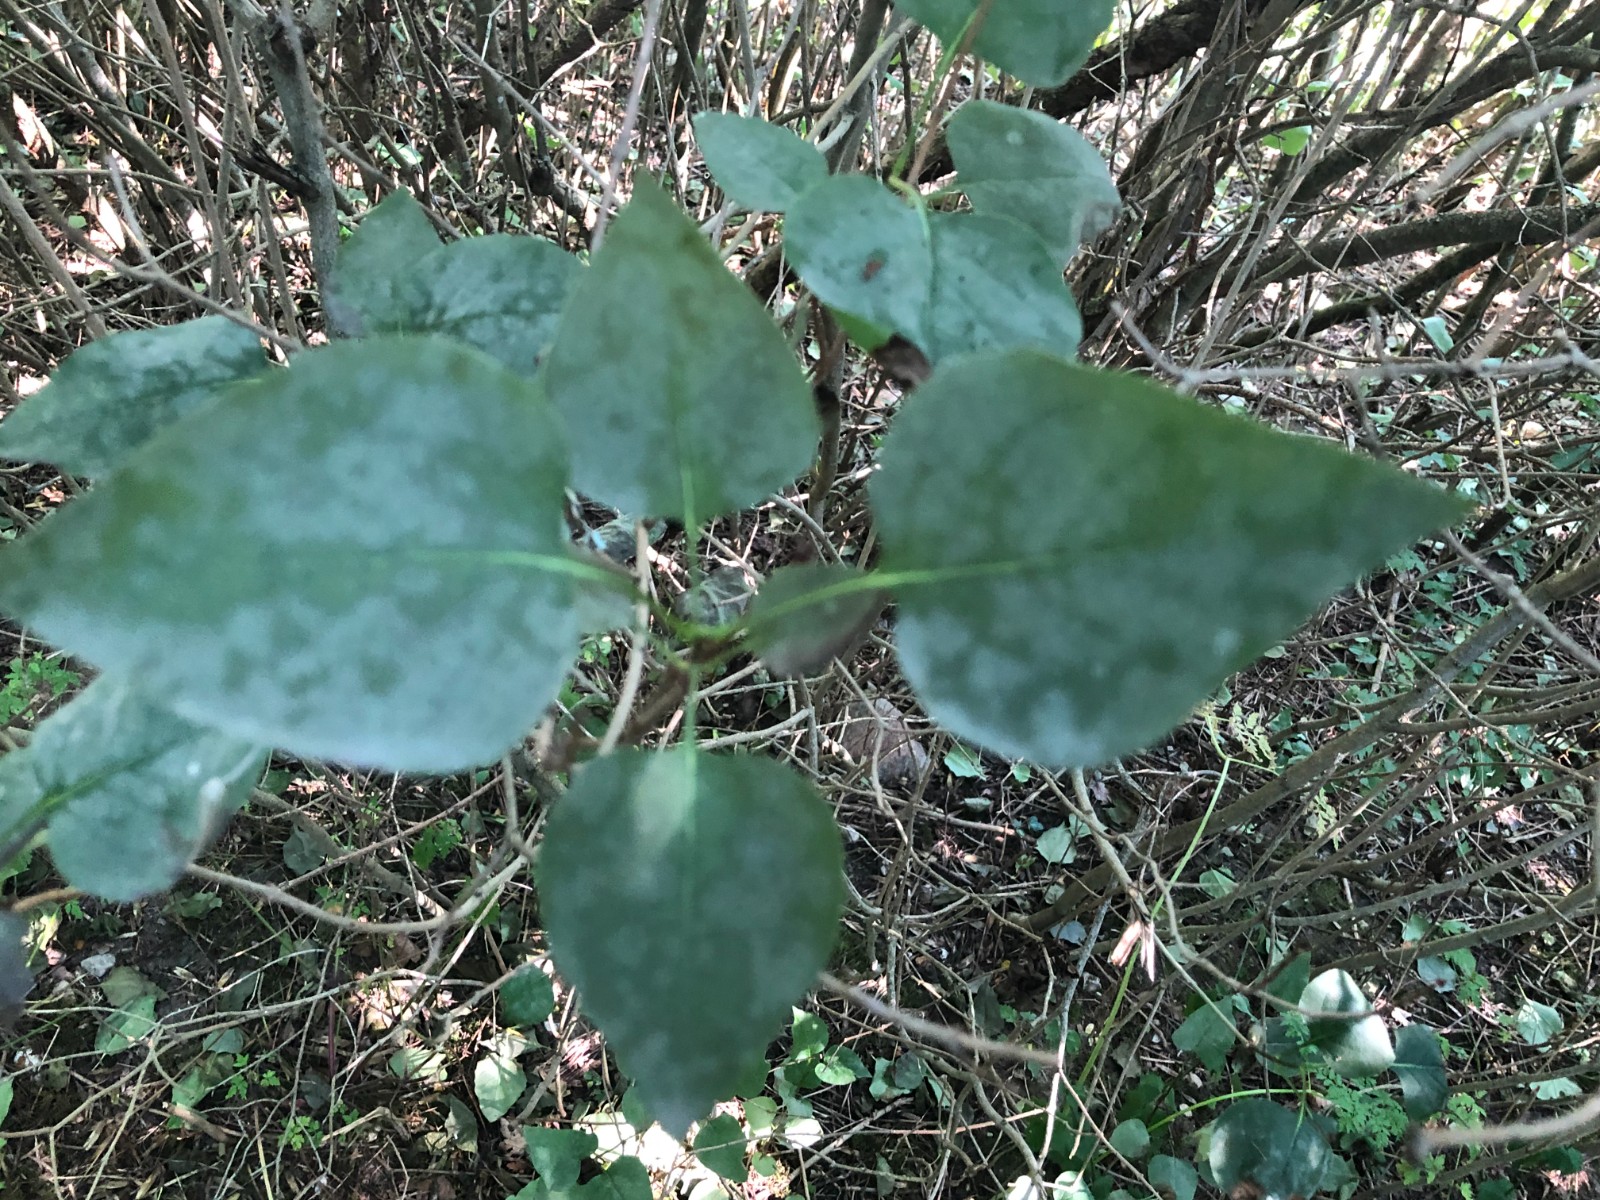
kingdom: Fungi
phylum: Ascomycota
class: Leotiomycetes
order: Helotiales
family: Erysiphaceae
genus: Erysiphe
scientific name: Erysiphe syringae-japonicae
